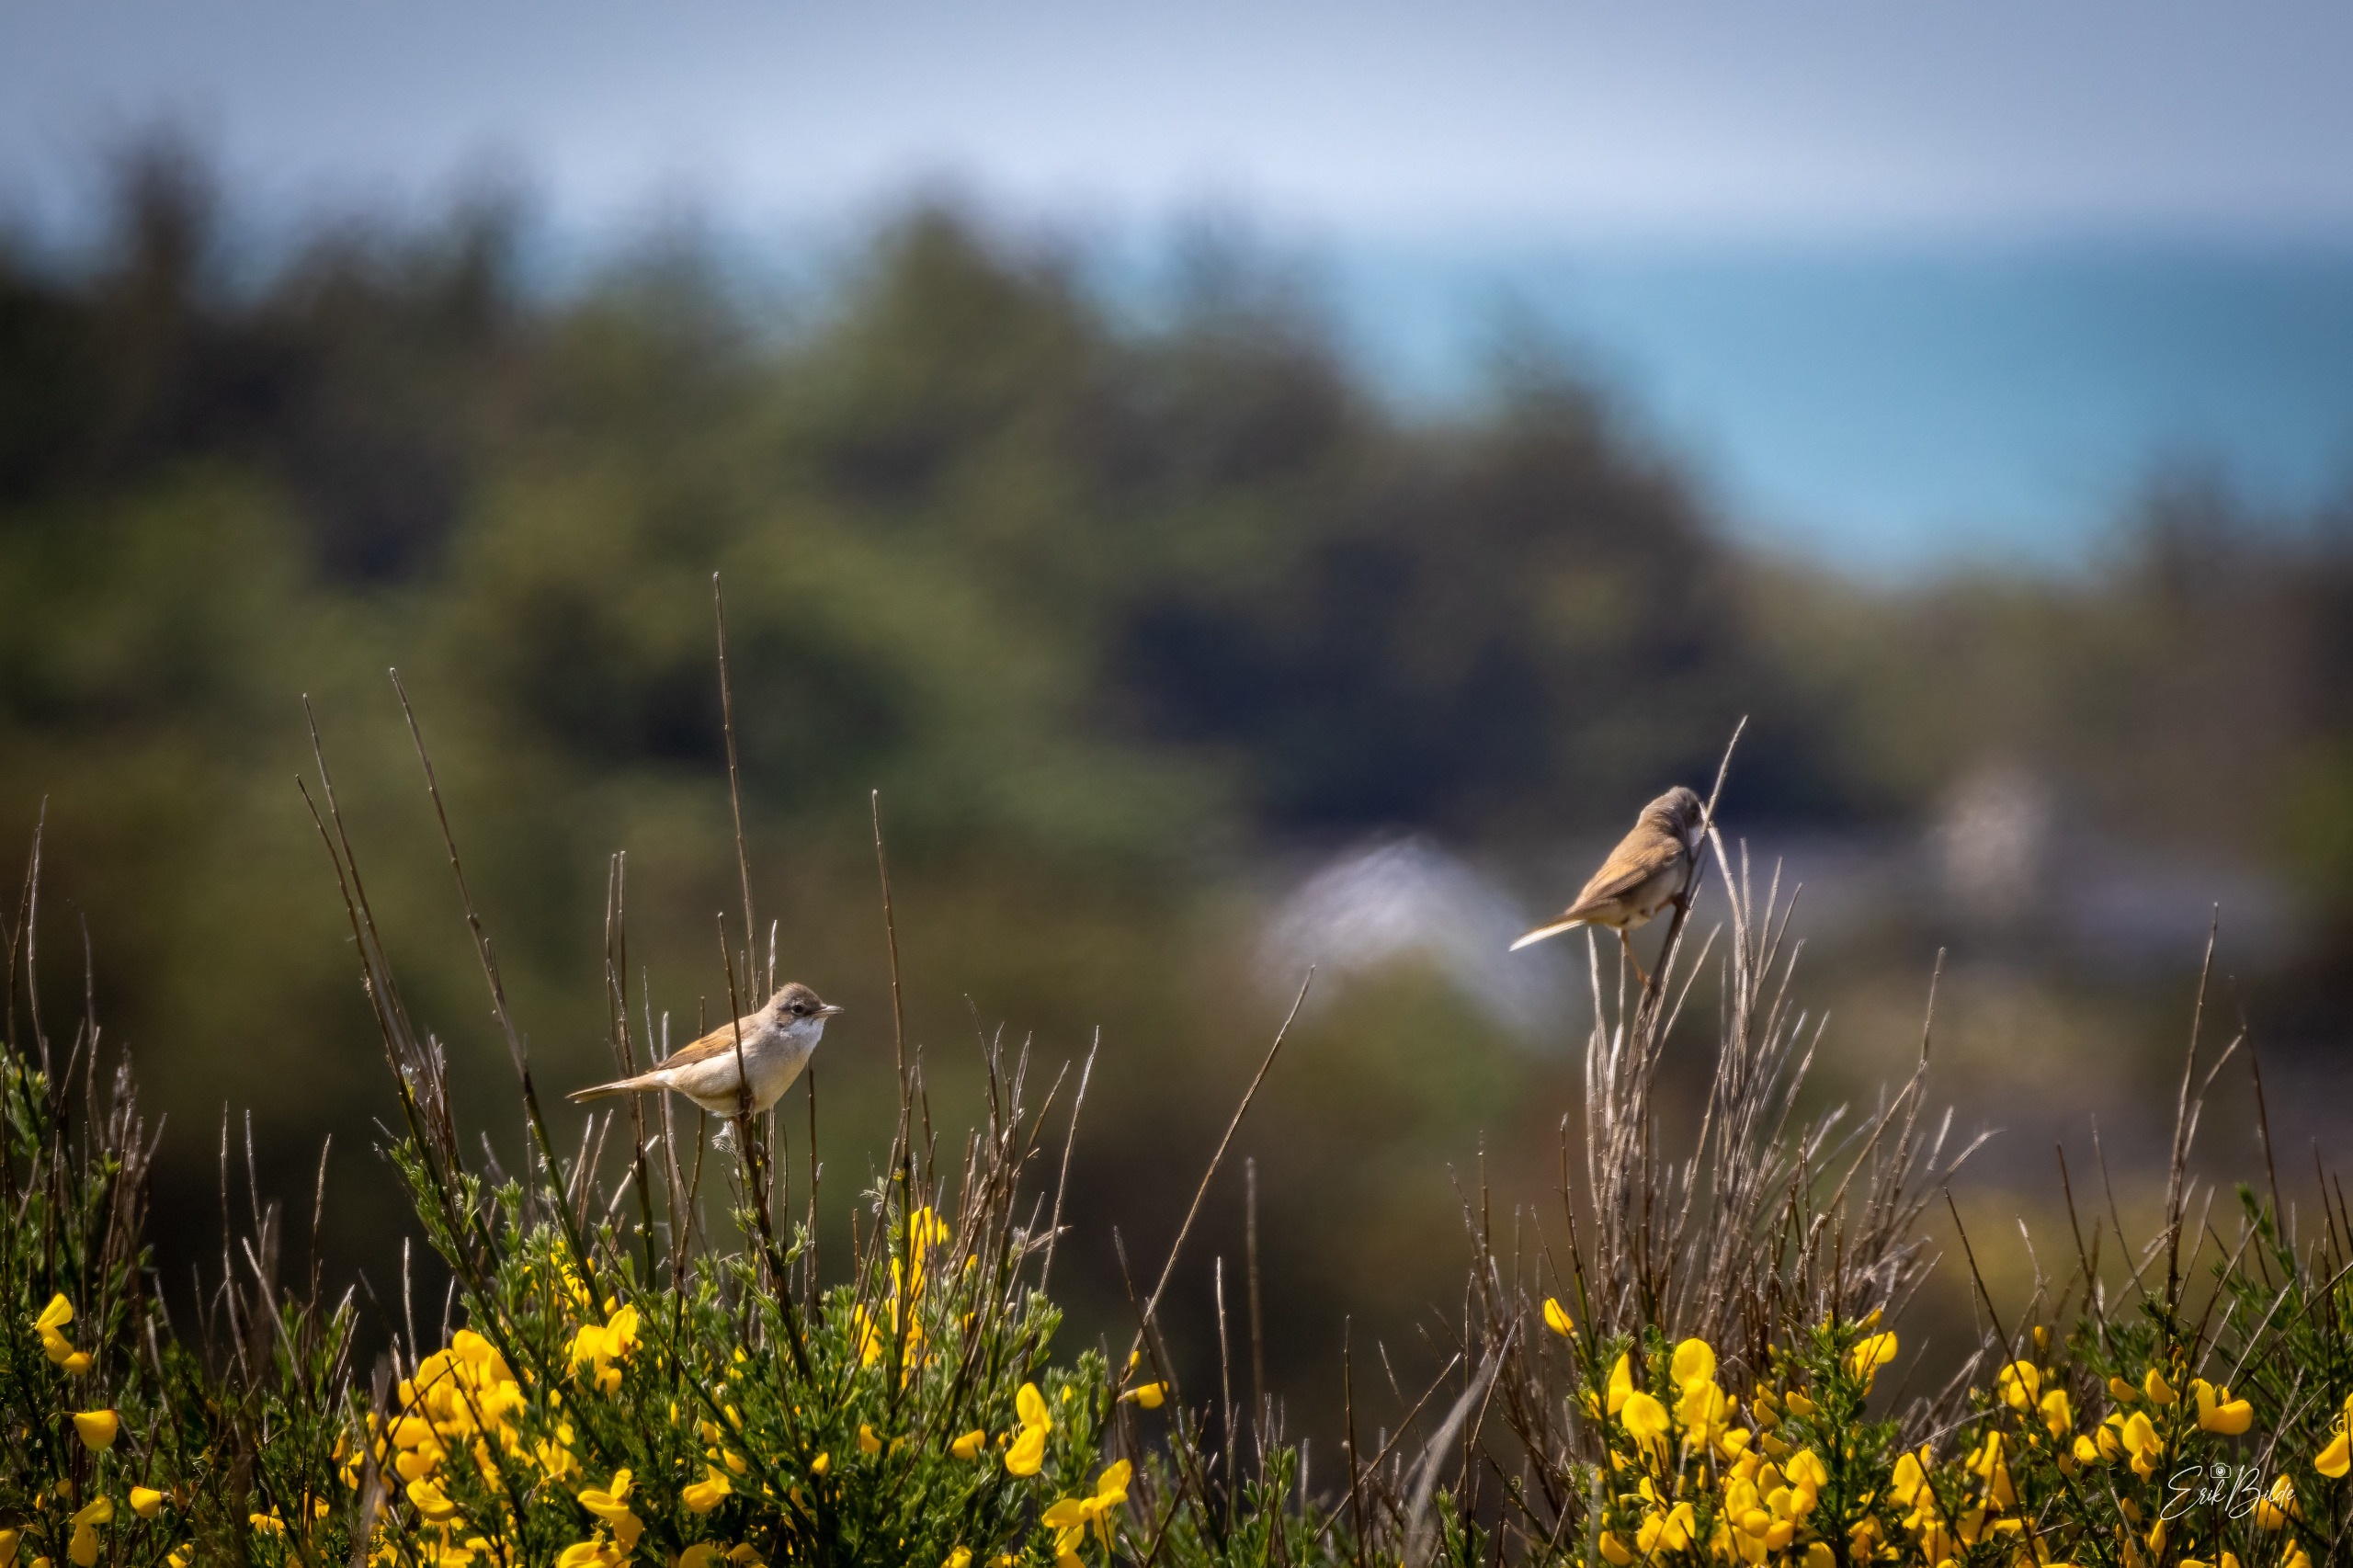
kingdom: Animalia
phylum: Chordata
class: Aves
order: Passeriformes
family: Sylviidae
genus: Sylvia
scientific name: Sylvia communis
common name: Tornsanger
